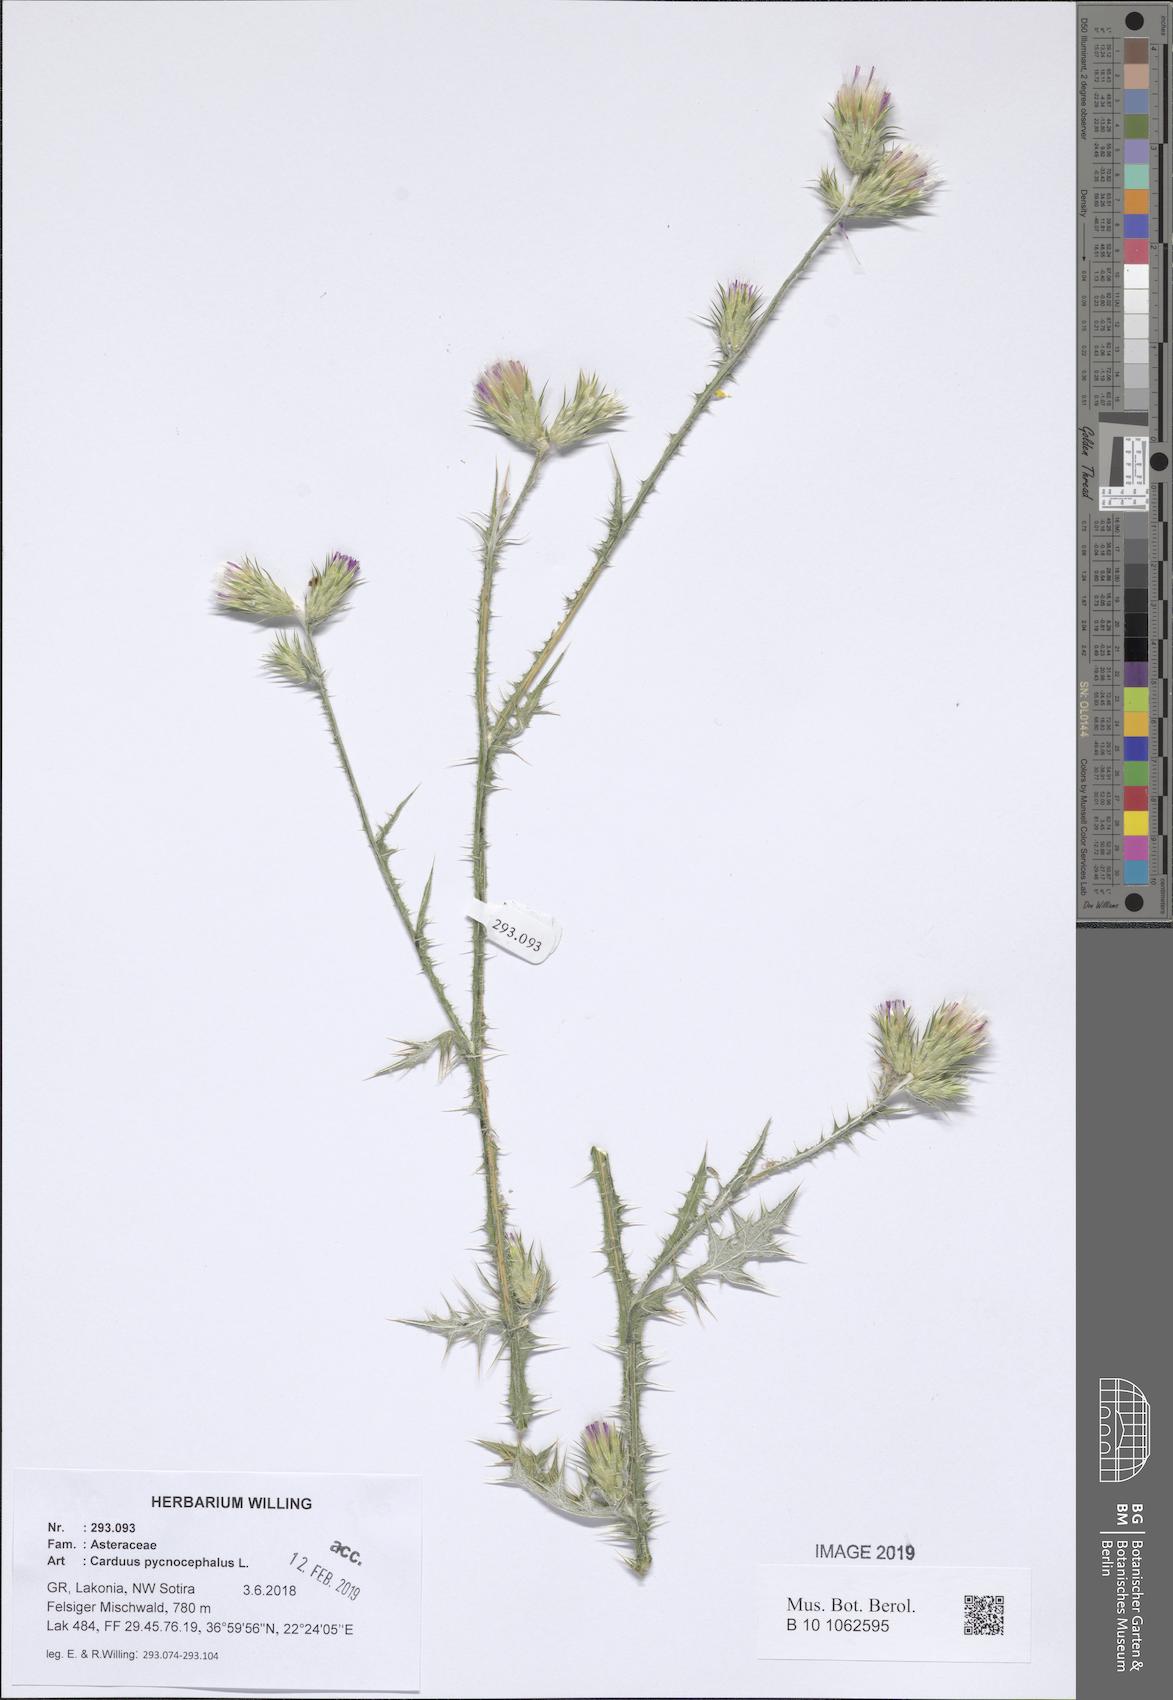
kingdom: Plantae
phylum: Tracheophyta
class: Magnoliopsida
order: Asterales
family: Asteraceae
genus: Carduus
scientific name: Carduus pycnocephalus
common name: Plymouth thistle
